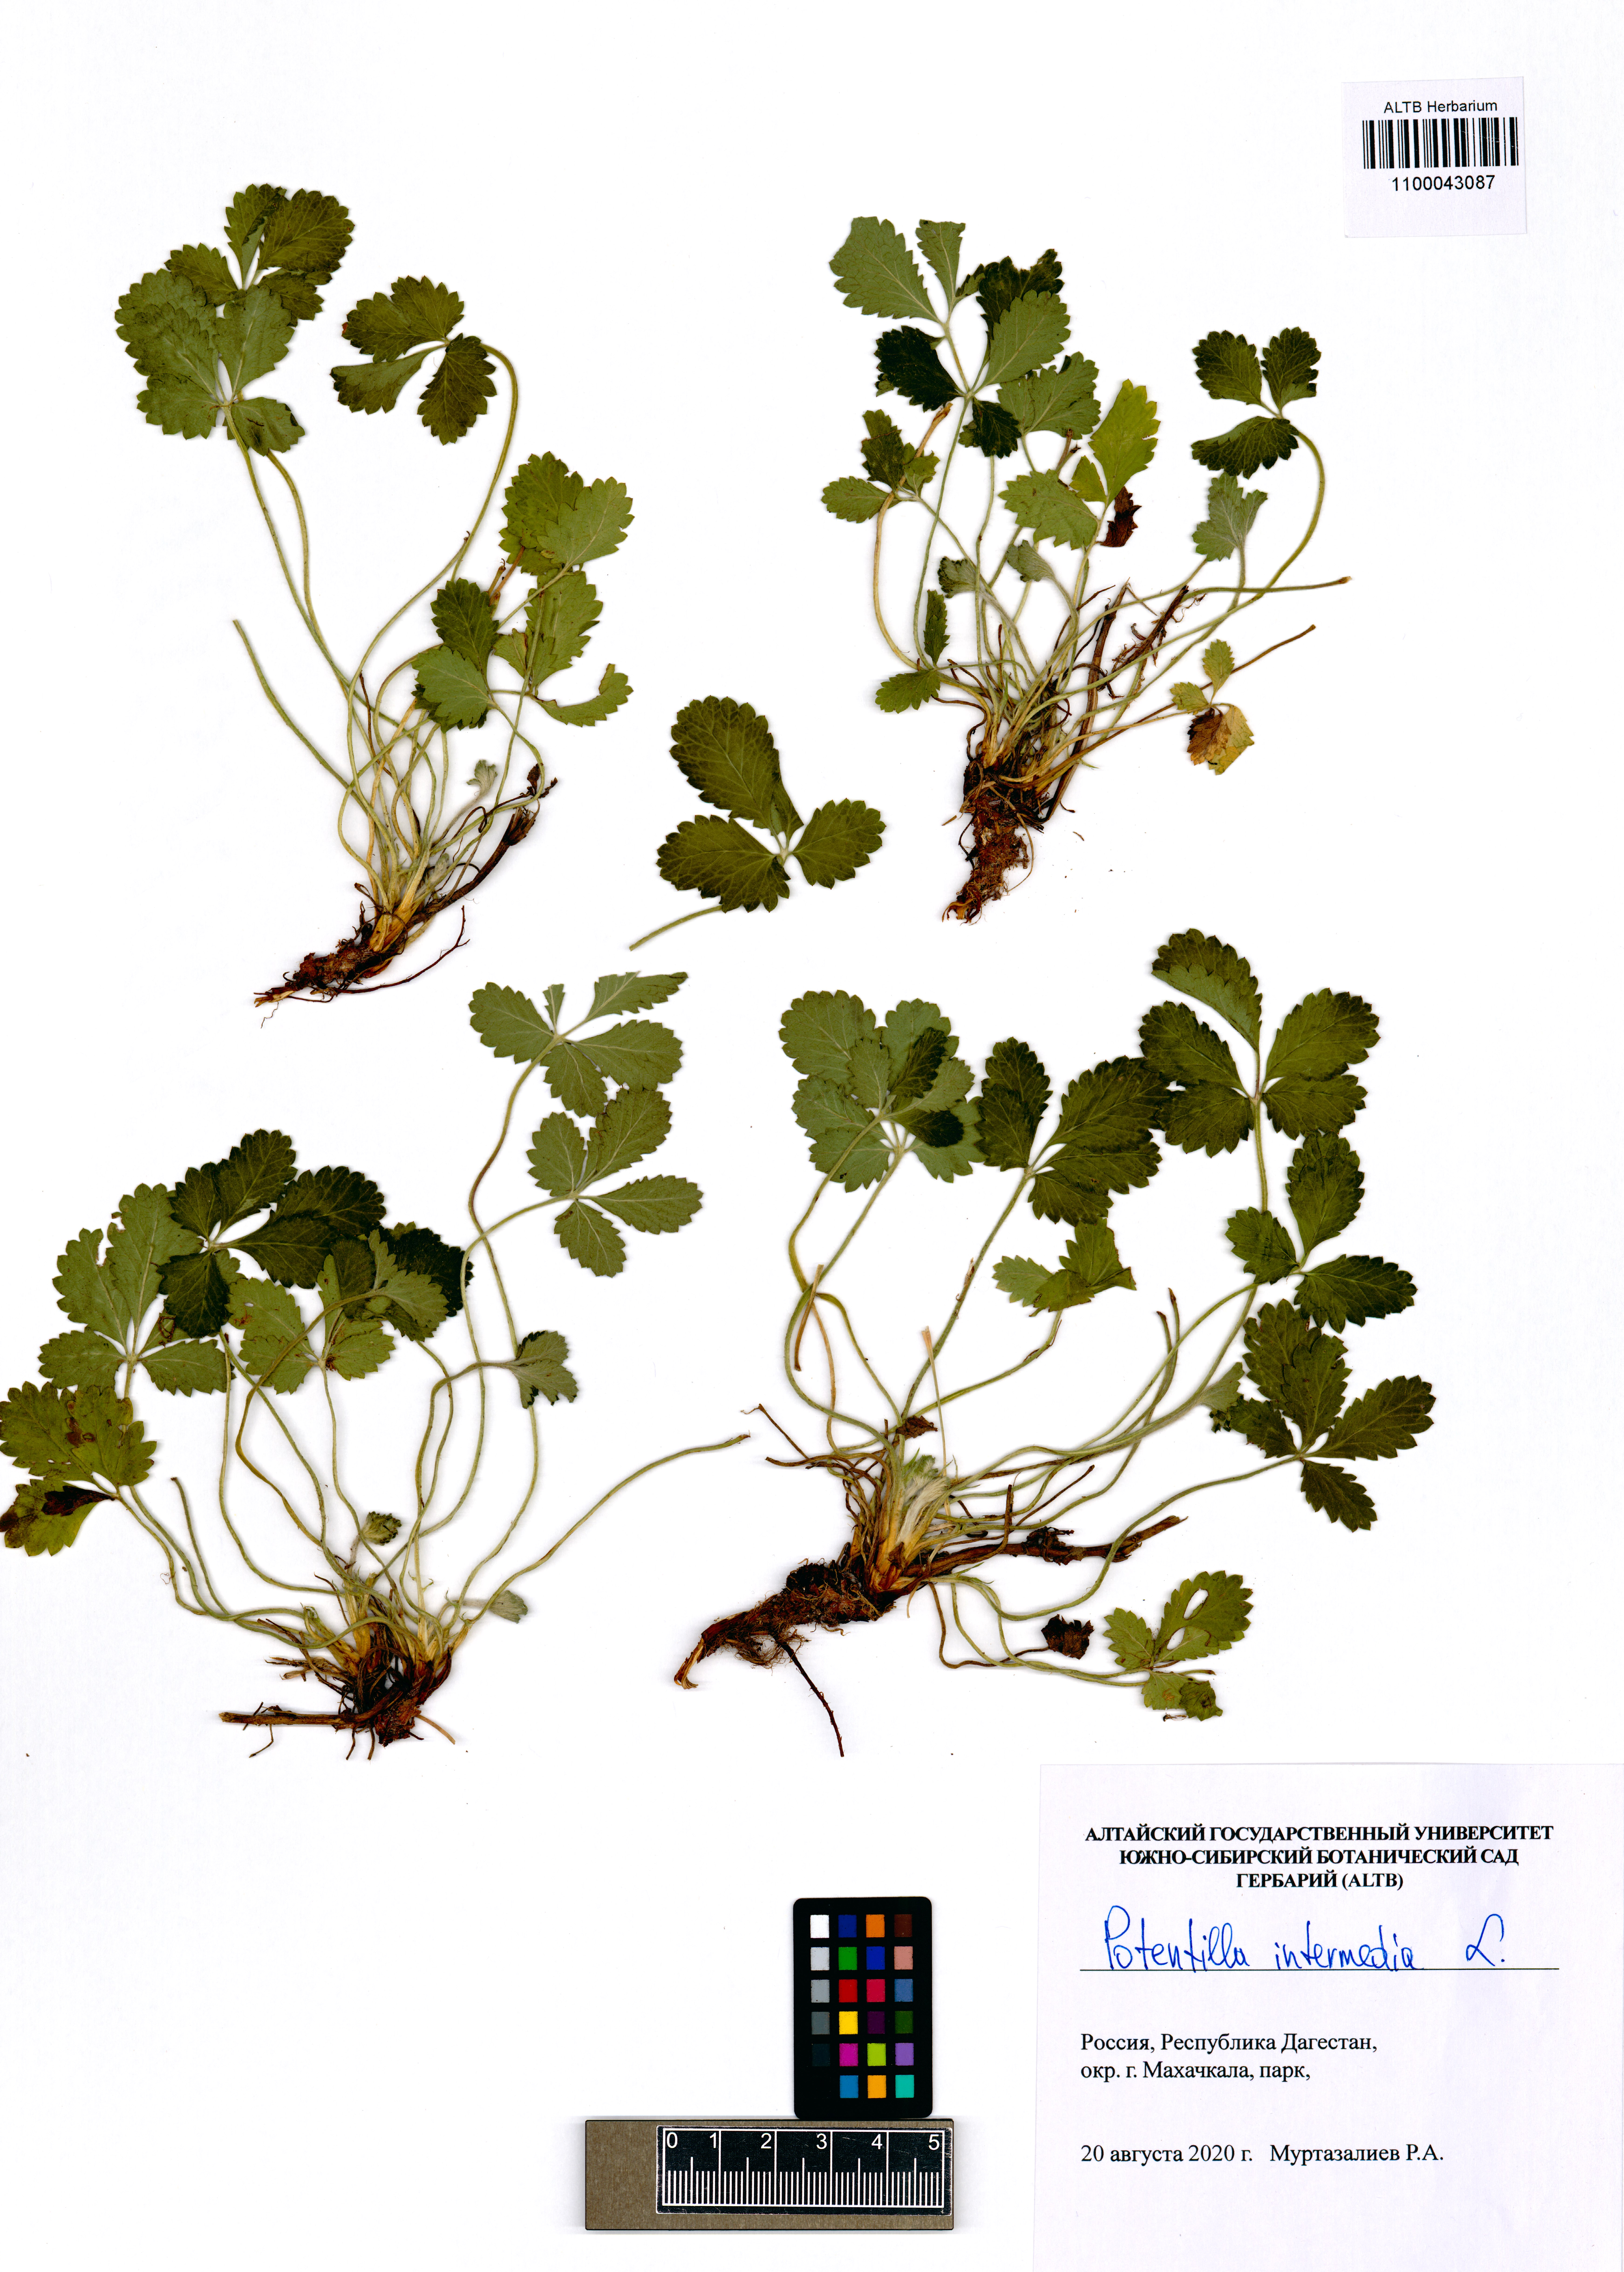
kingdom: Plantae
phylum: Tracheophyta
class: Magnoliopsida
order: Rosales
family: Rosaceae
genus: Potentilla
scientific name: Potentilla intermedia
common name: Downy cinquefoil
